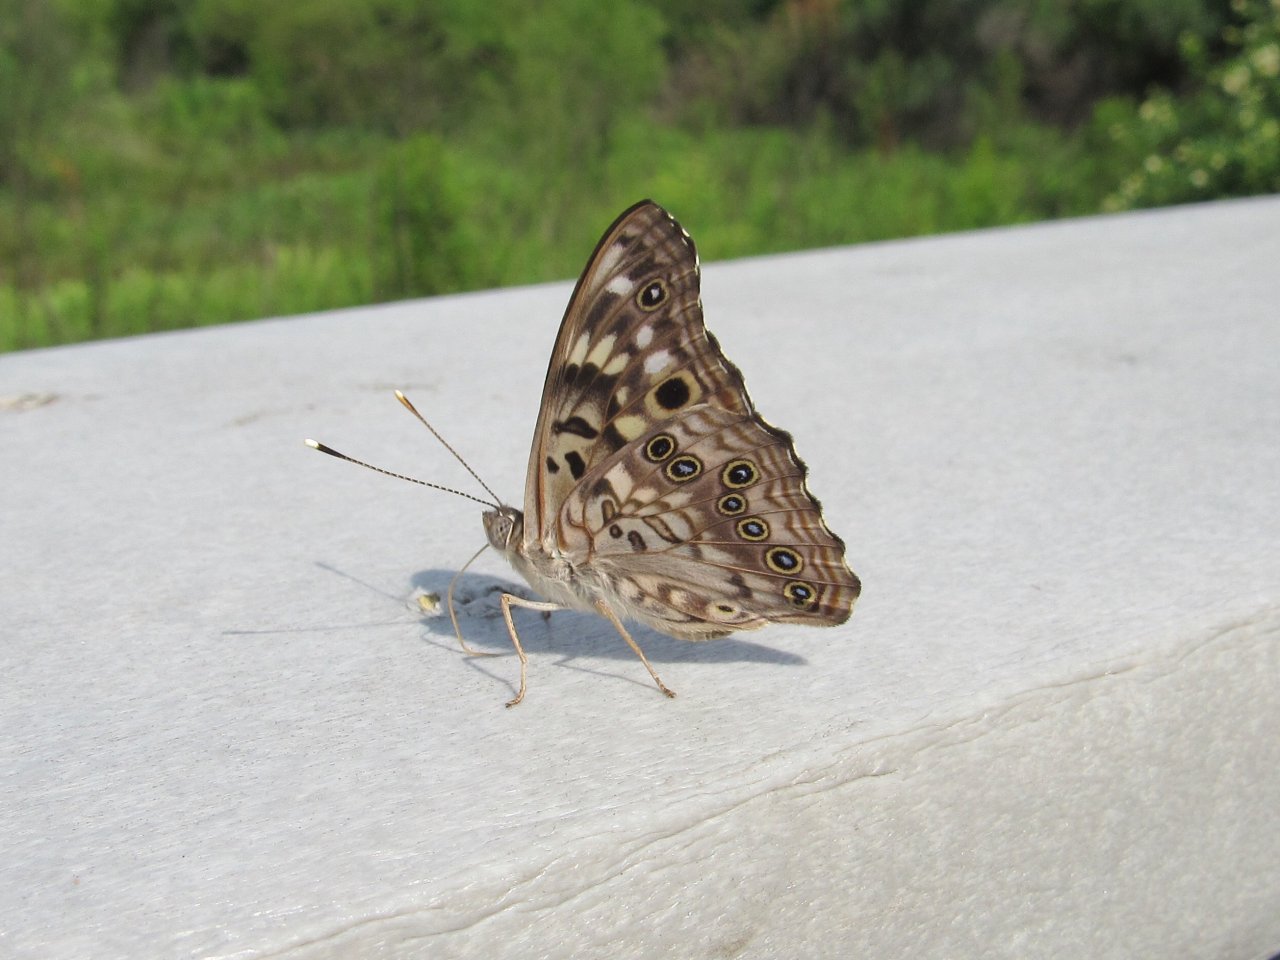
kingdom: Animalia
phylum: Arthropoda
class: Insecta
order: Lepidoptera
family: Nymphalidae
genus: Asterocampa
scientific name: Asterocampa celtis
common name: Hackberry Emperor
